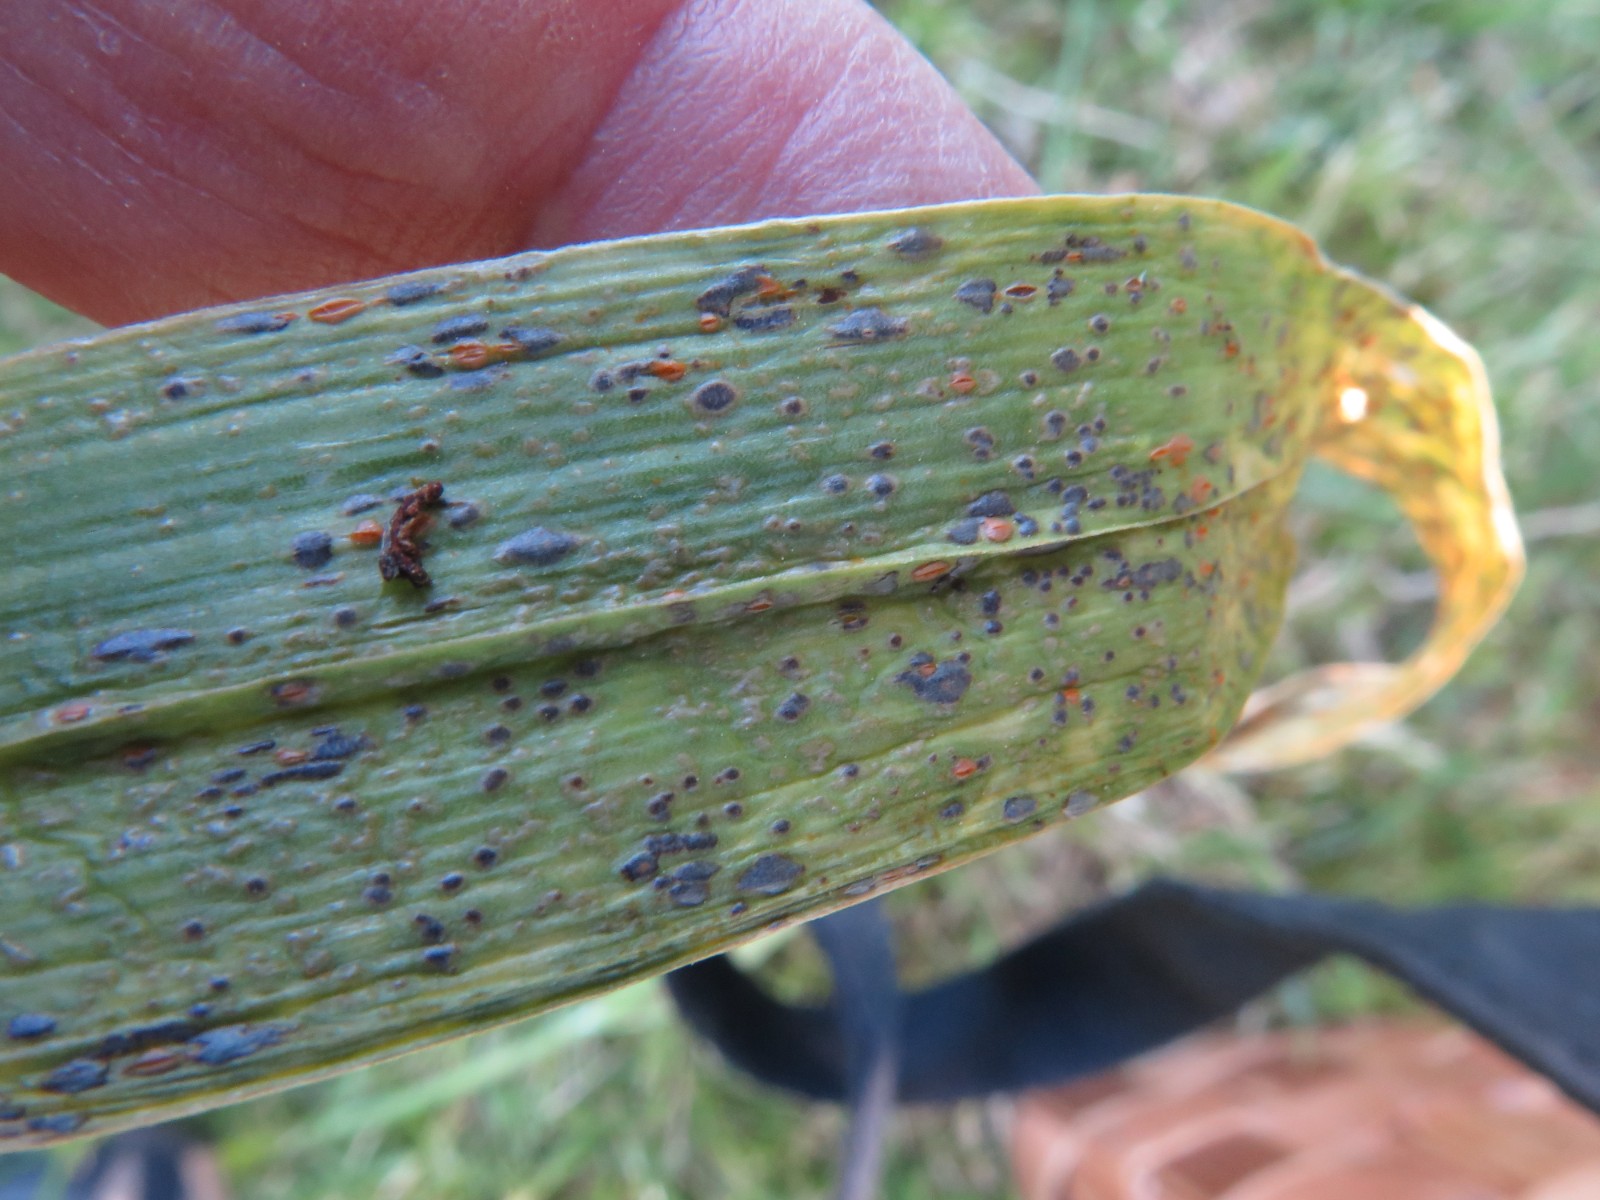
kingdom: Fungi
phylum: Basidiomycota
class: Pucciniomycetes
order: Pucciniales
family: Pucciniaceae
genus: Puccinia
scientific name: Puccinia porri
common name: Allium rust
